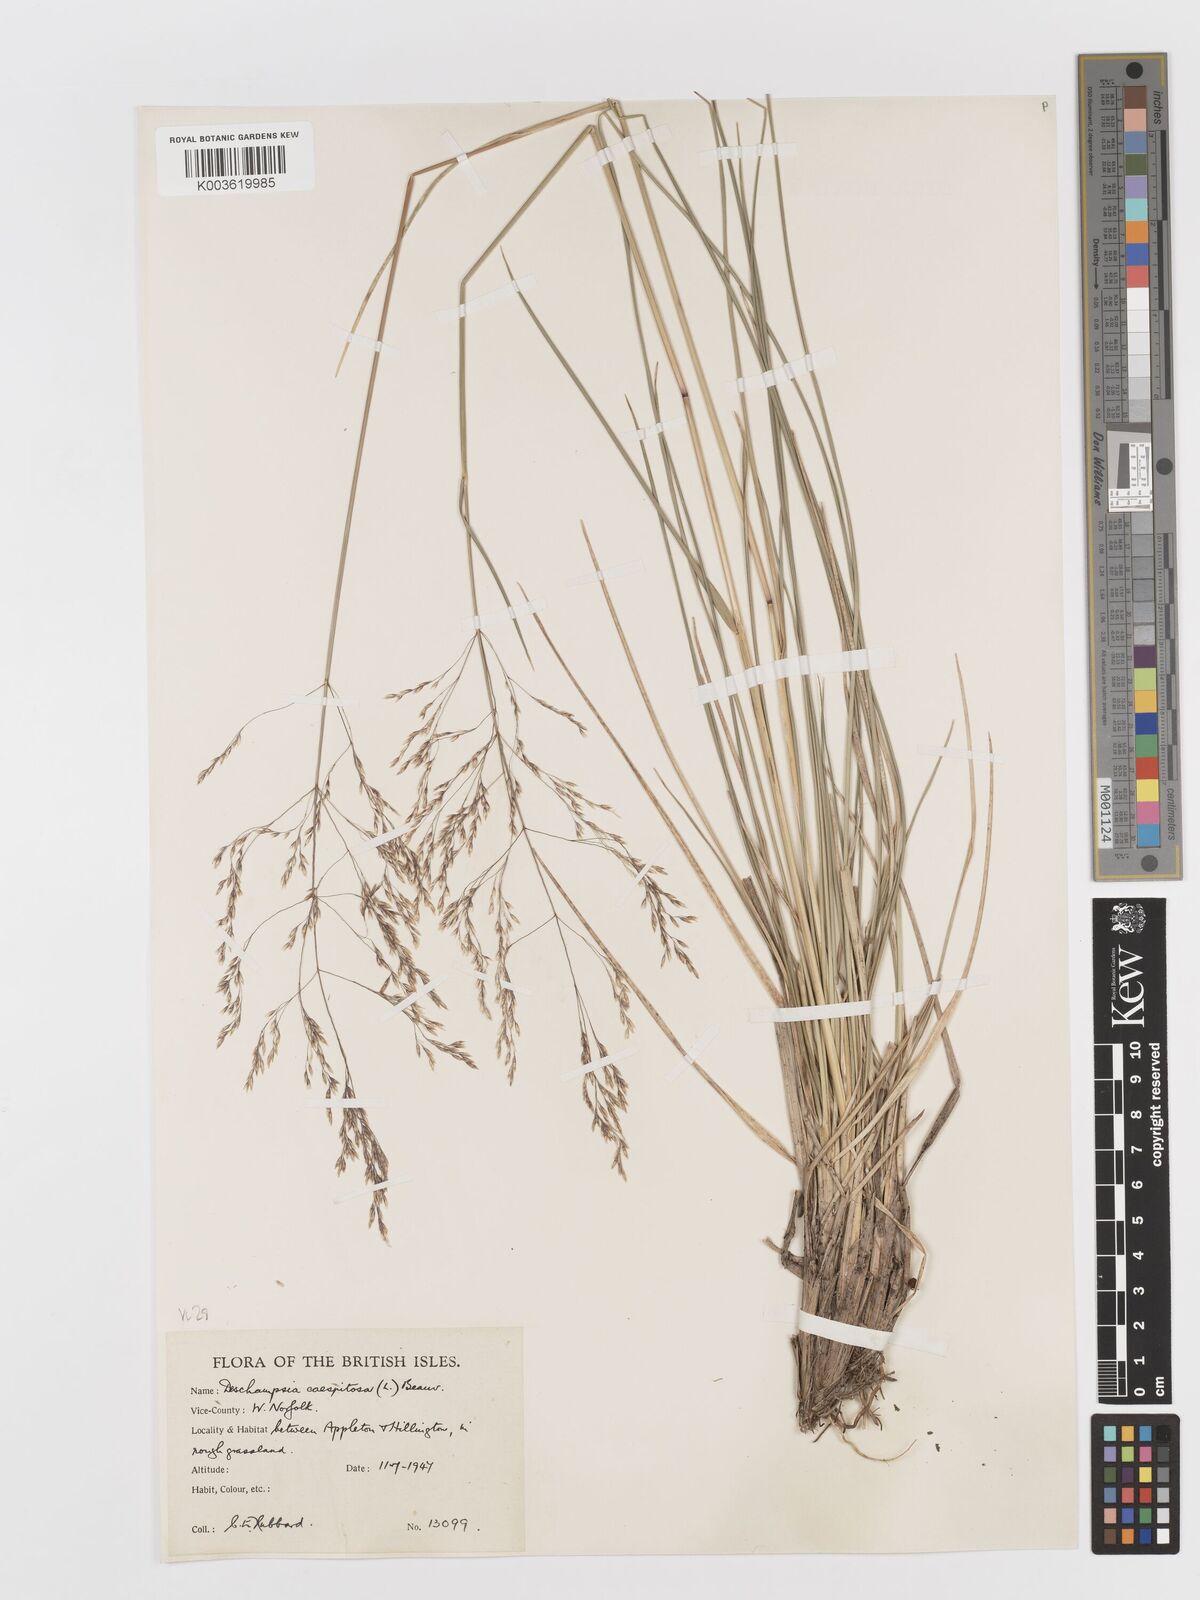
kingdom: Plantae
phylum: Tracheophyta
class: Liliopsida
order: Poales
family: Poaceae
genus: Deschampsia
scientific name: Deschampsia cespitosa
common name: Tufted hair-grass
